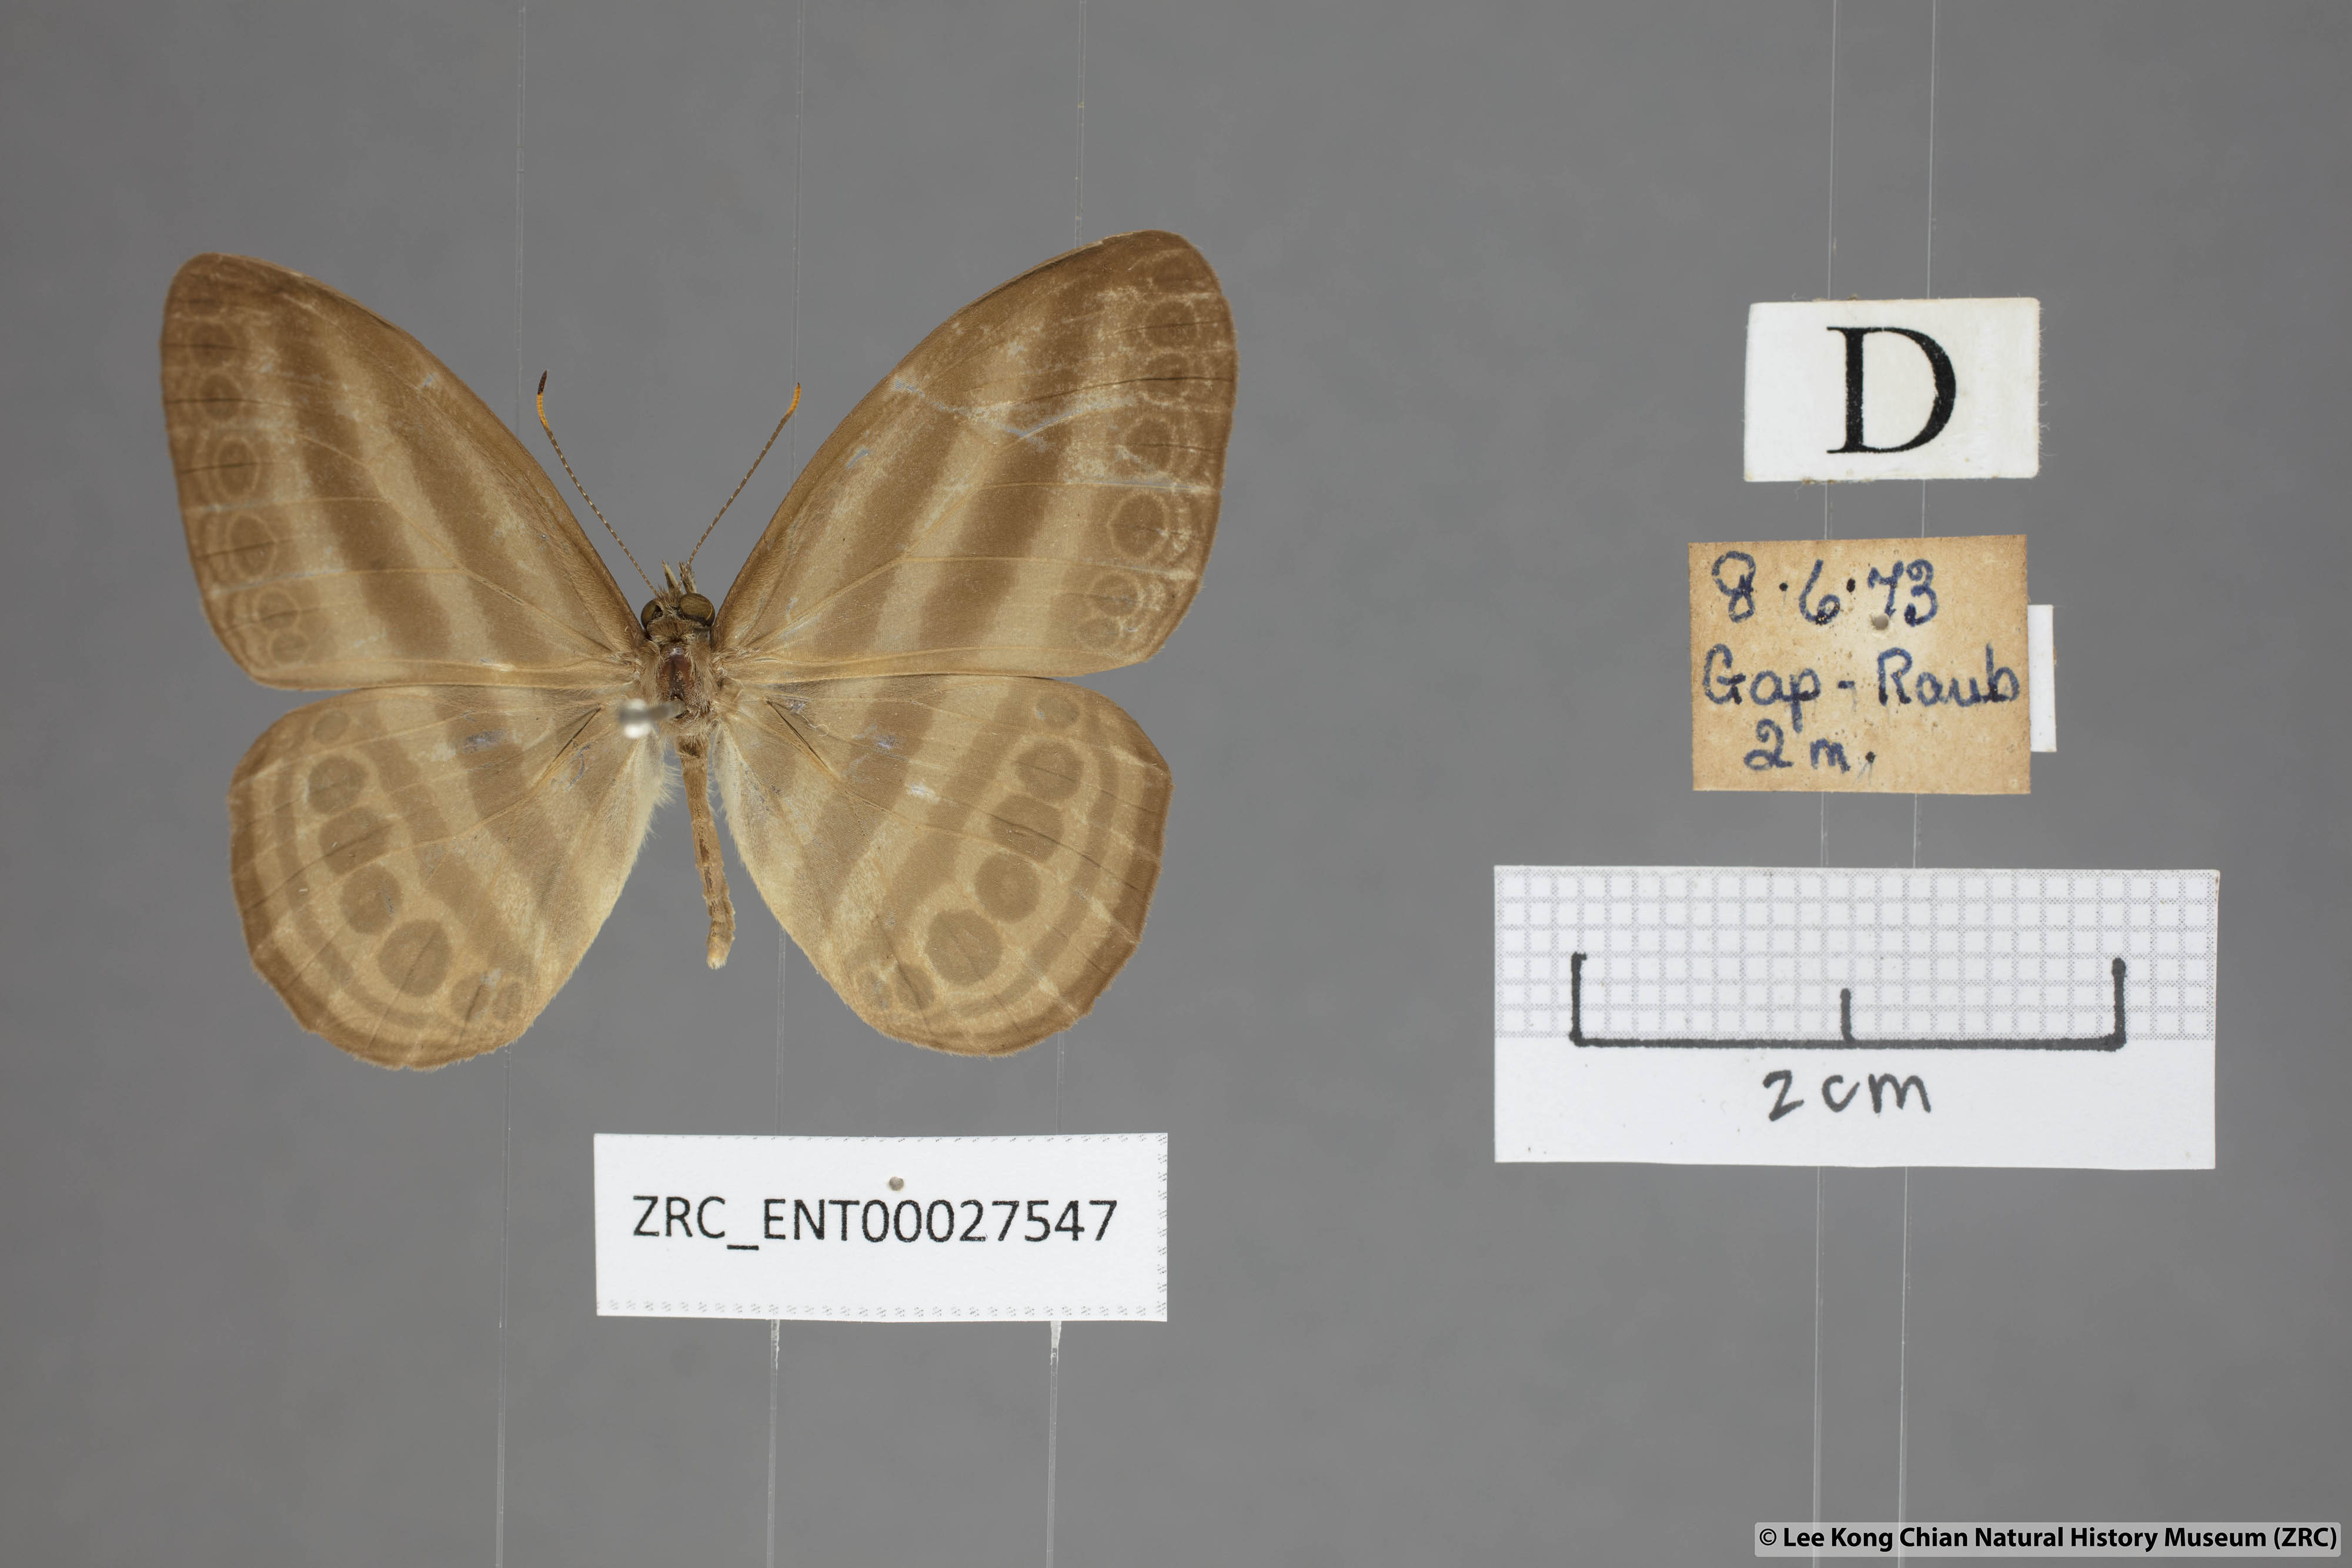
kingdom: Animalia
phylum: Arthropoda
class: Insecta
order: Lepidoptera
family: Nymphalidae
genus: Ragadia
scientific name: Ragadia makata
